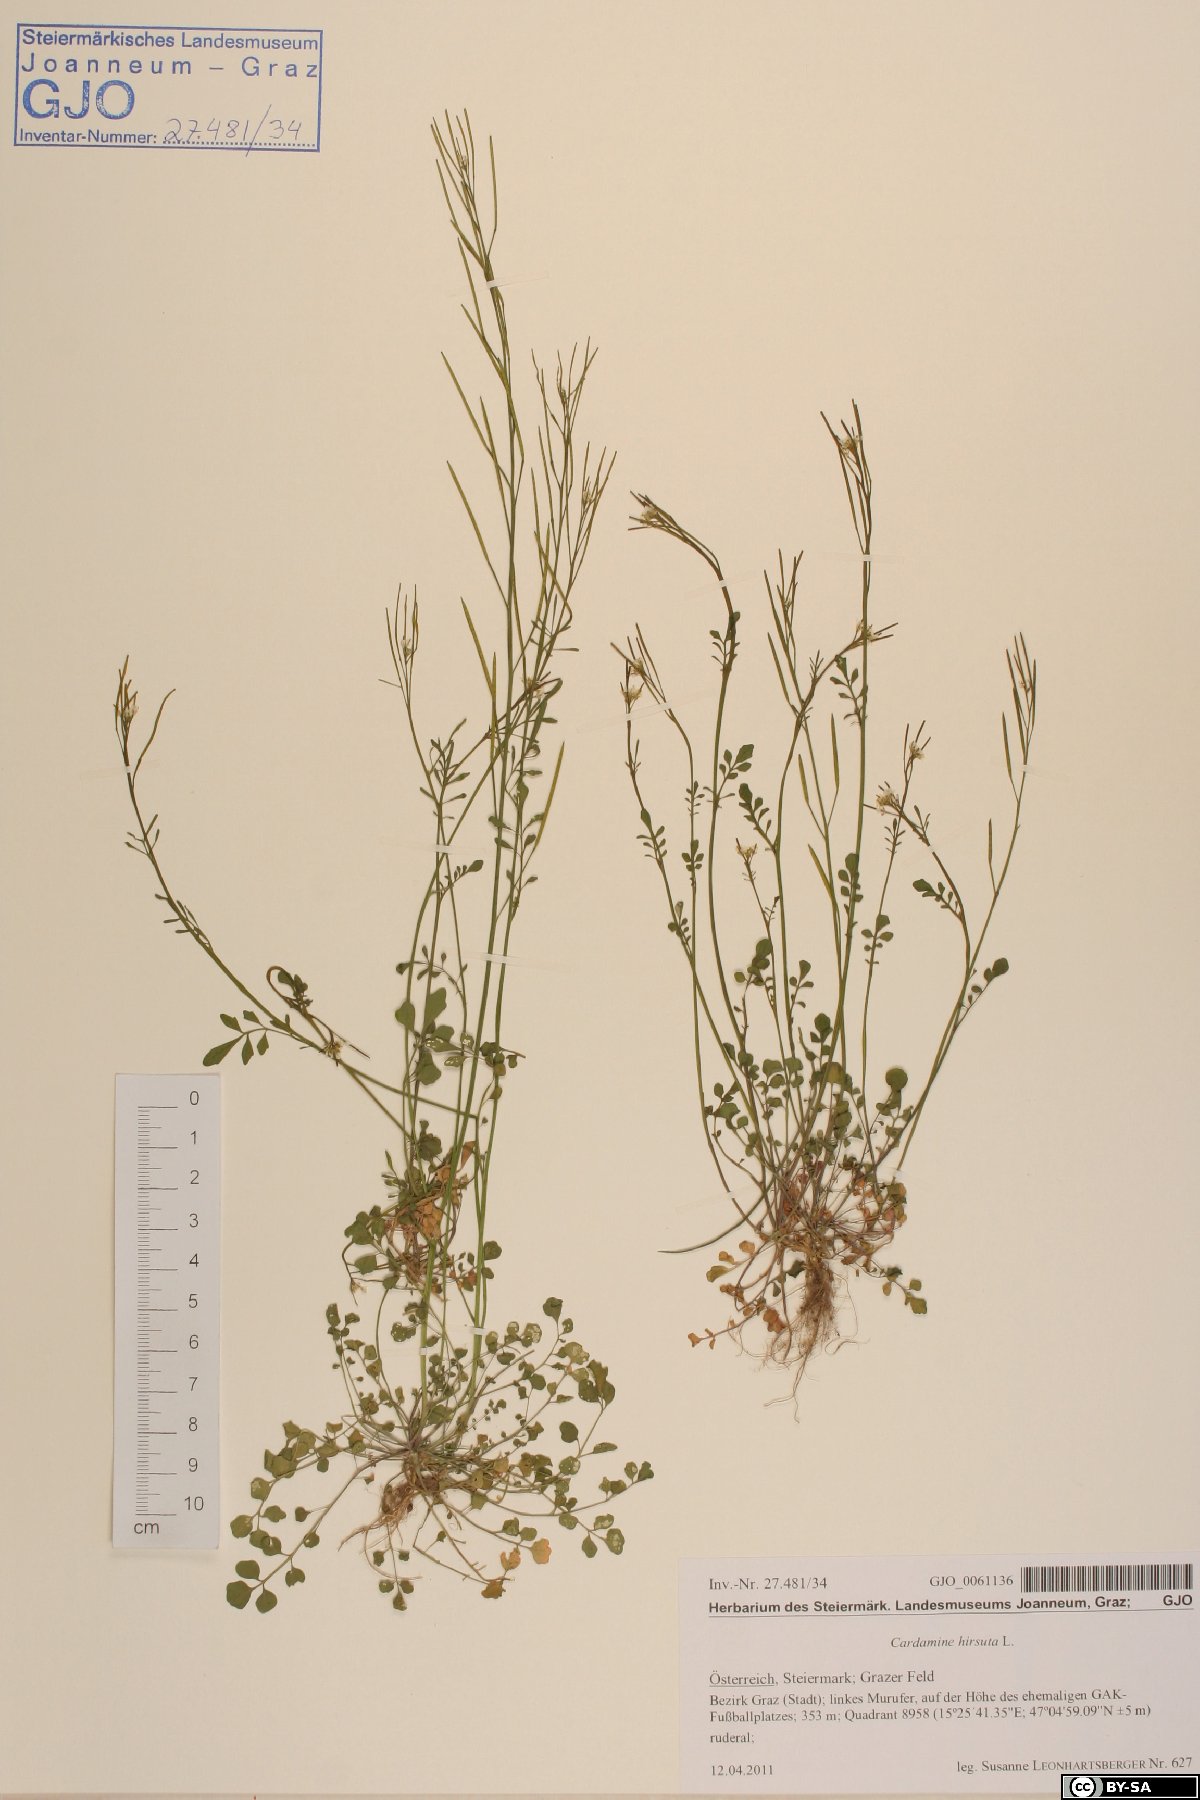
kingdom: Plantae
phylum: Tracheophyta
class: Magnoliopsida
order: Brassicales
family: Brassicaceae
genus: Cardamine
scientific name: Cardamine hirsuta
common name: Hairy bittercress
